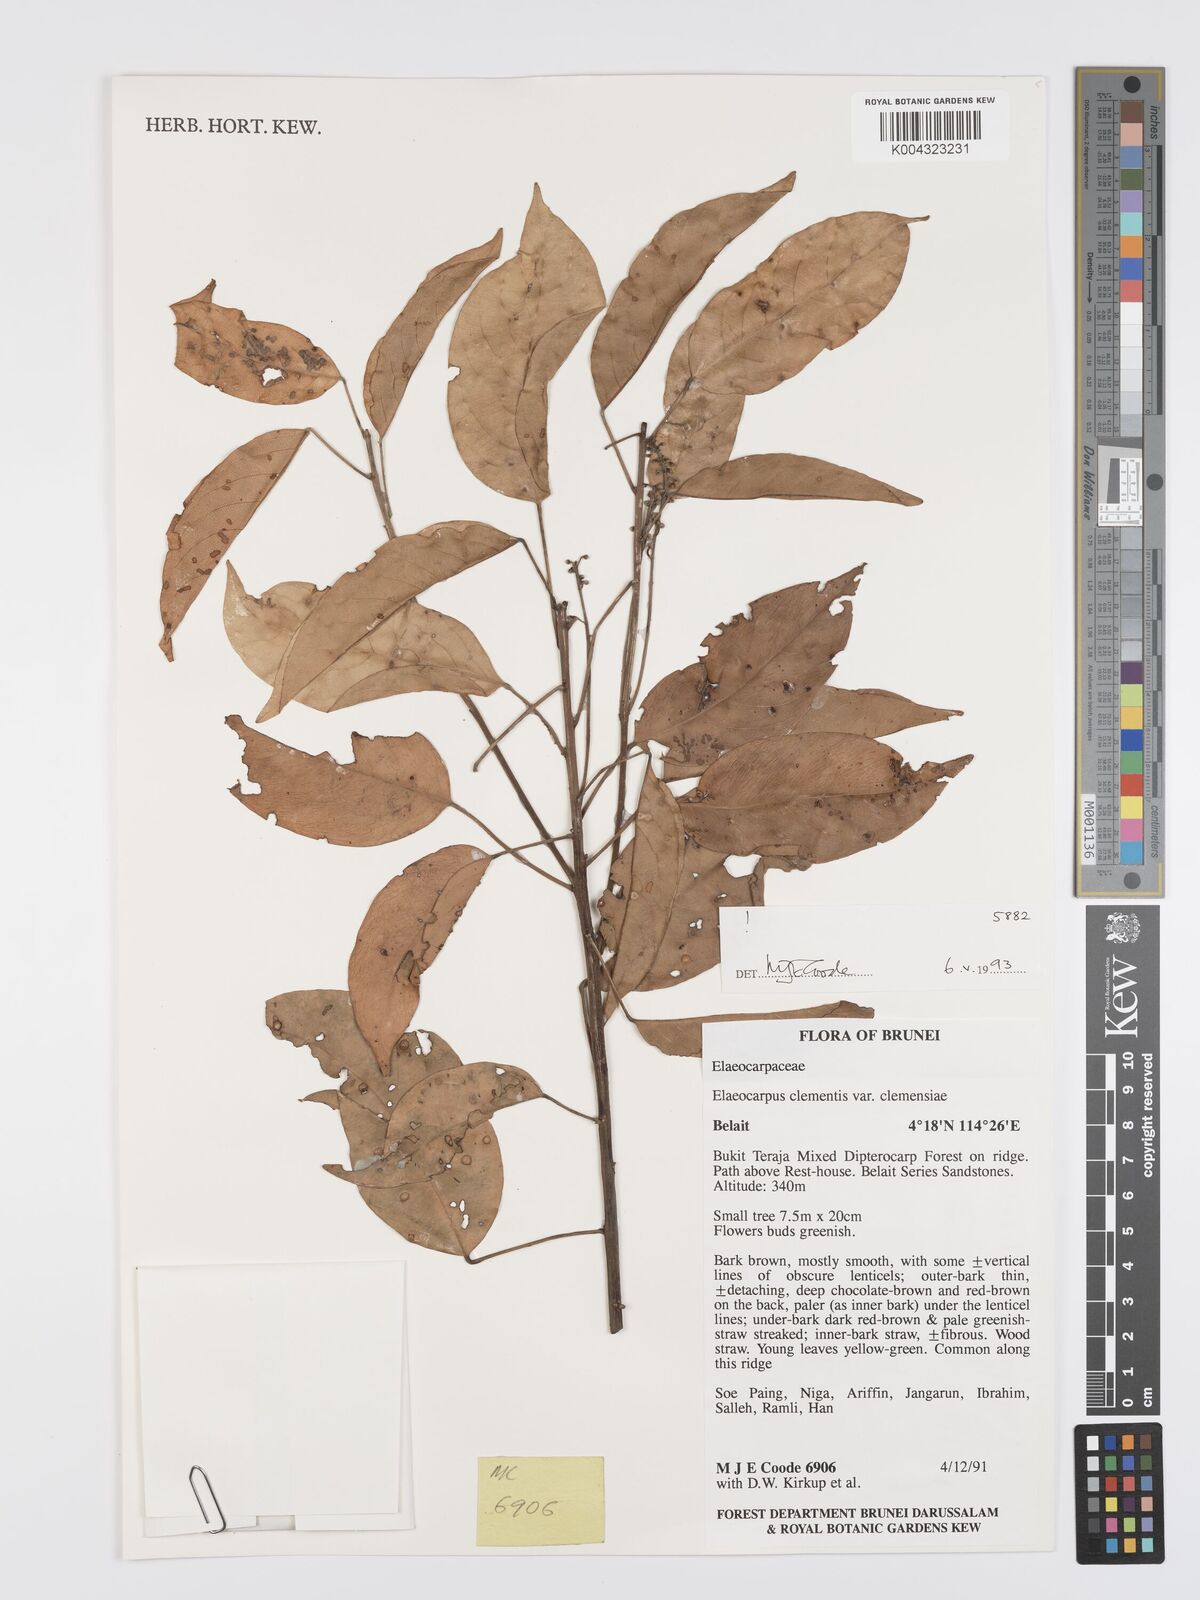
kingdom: Plantae
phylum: Tracheophyta
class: Magnoliopsida
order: Oxalidales
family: Elaeocarpaceae
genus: Elaeocarpus
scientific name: Elaeocarpus clementis
